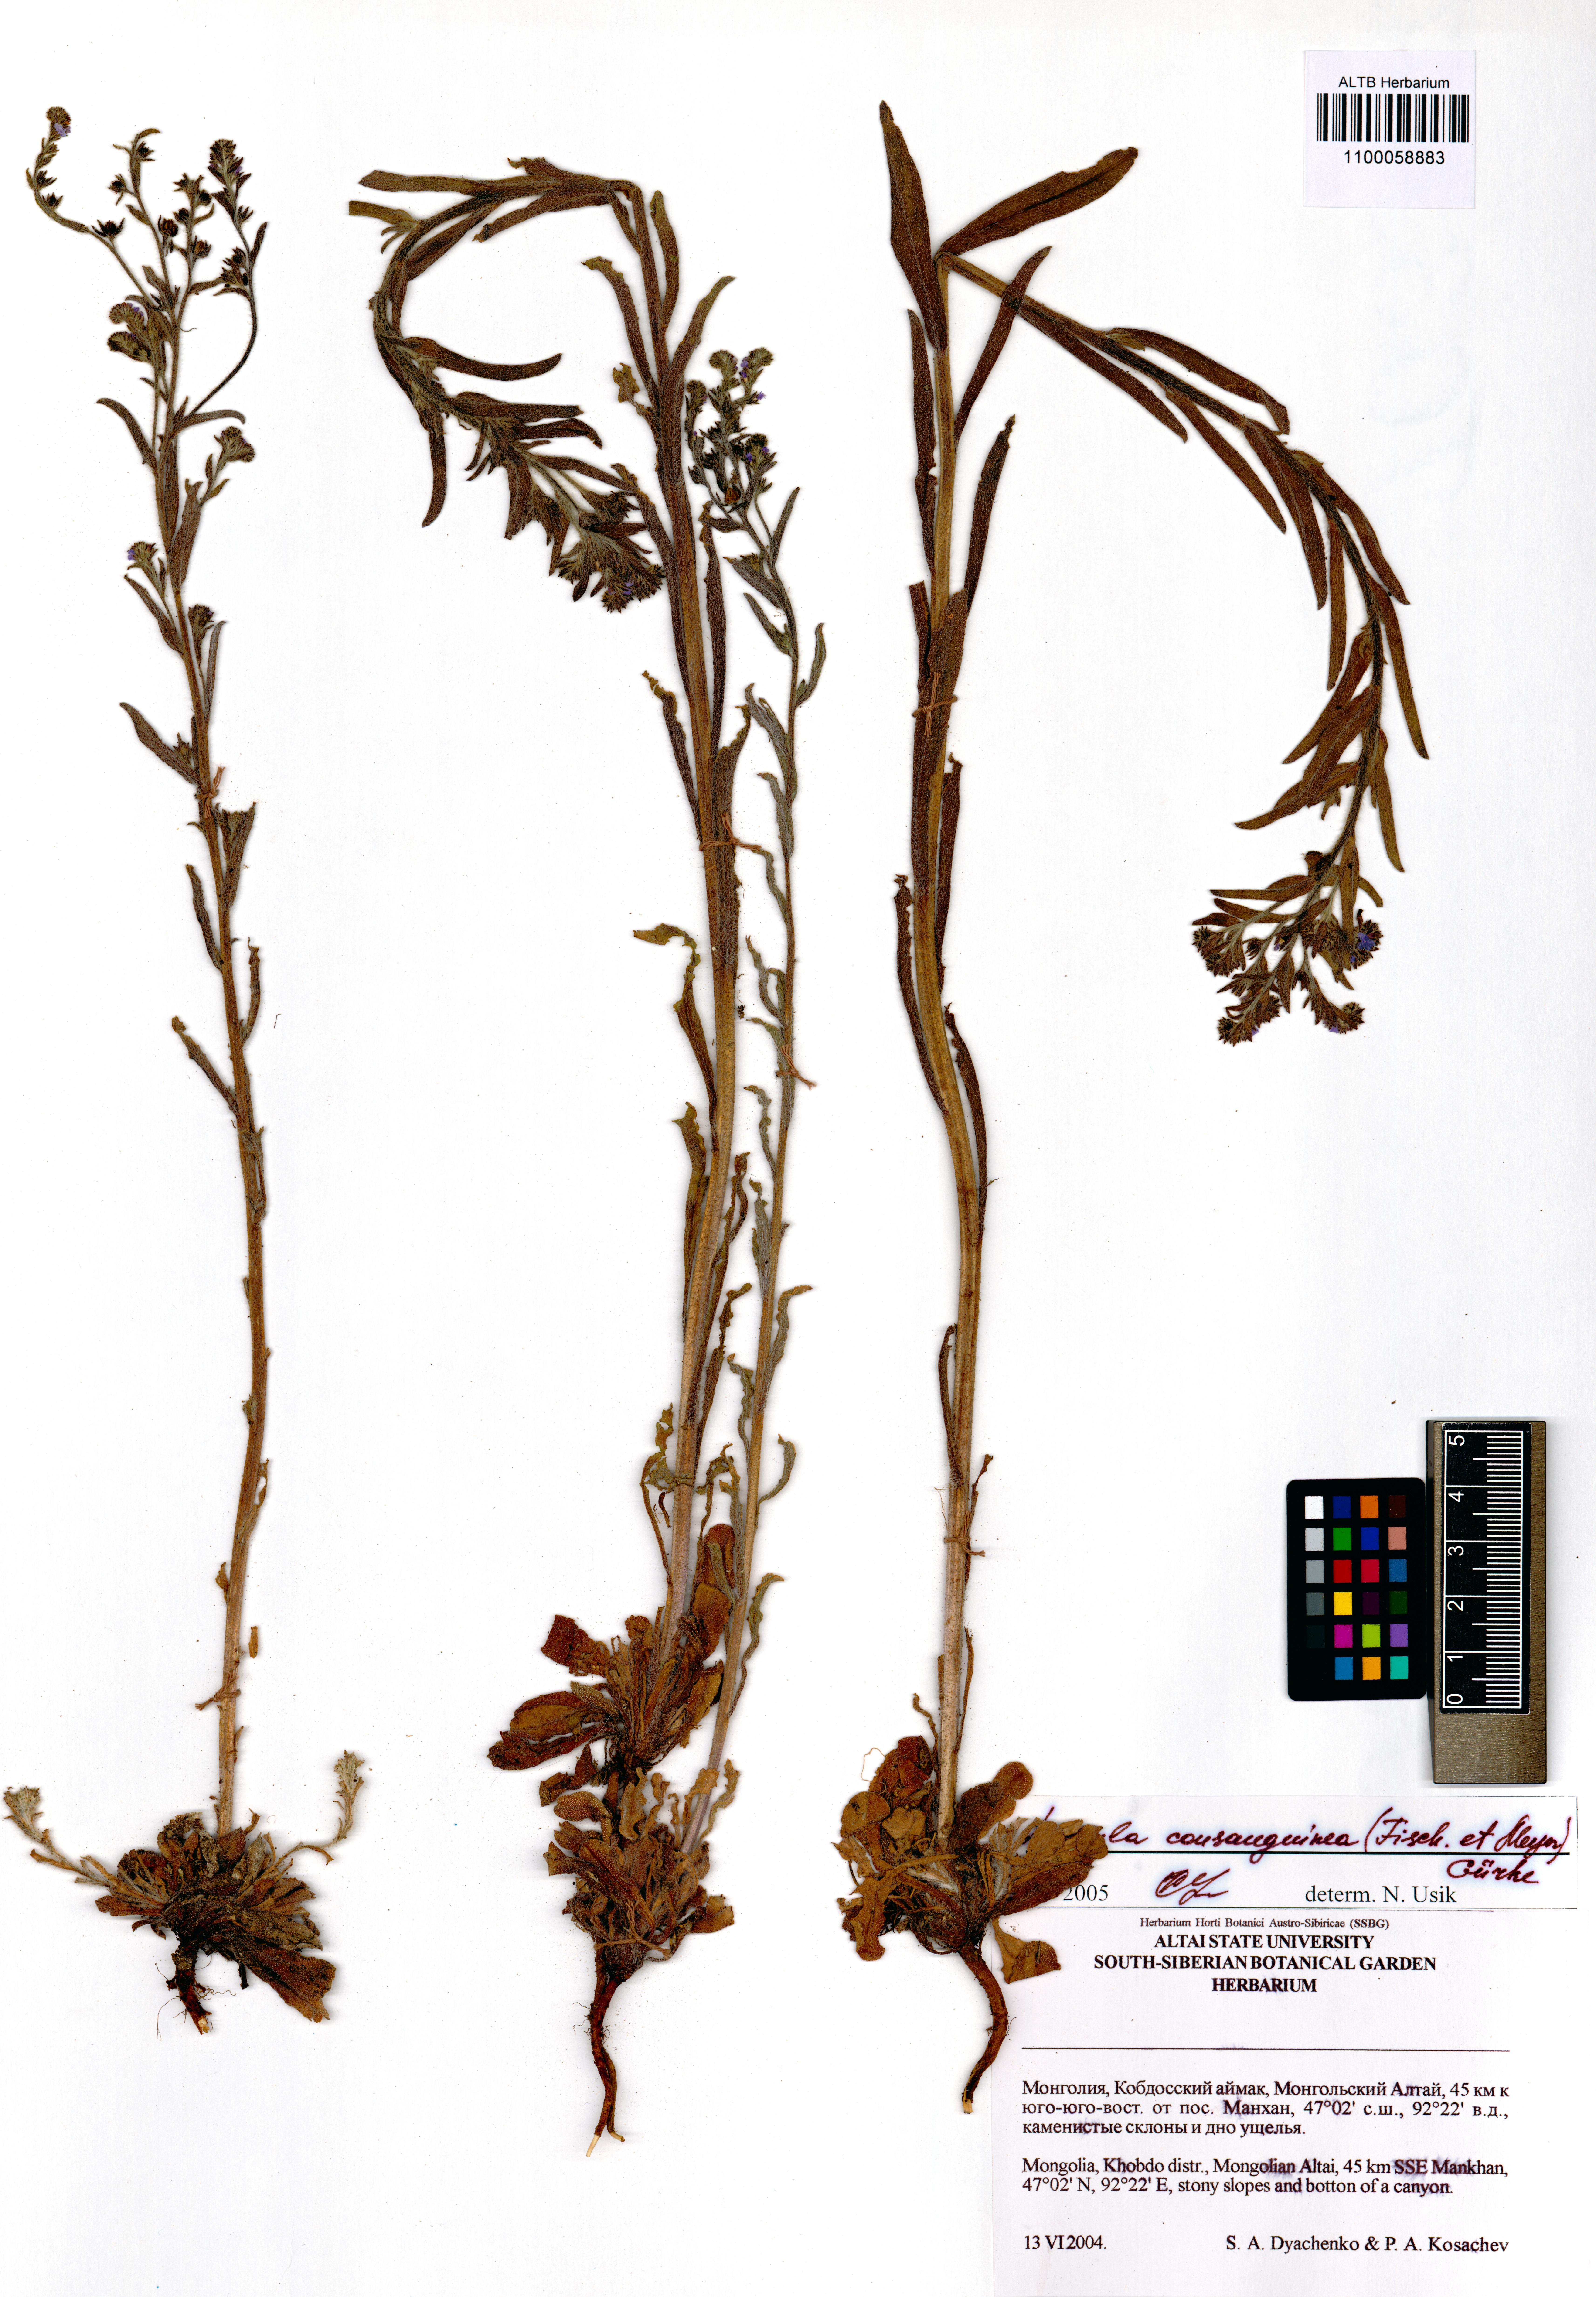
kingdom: Plantae
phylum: Tracheophyta
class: Magnoliopsida
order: Boraginales
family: Boraginaceae
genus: Lappula
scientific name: Lappula squarrosa
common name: European stickseed
